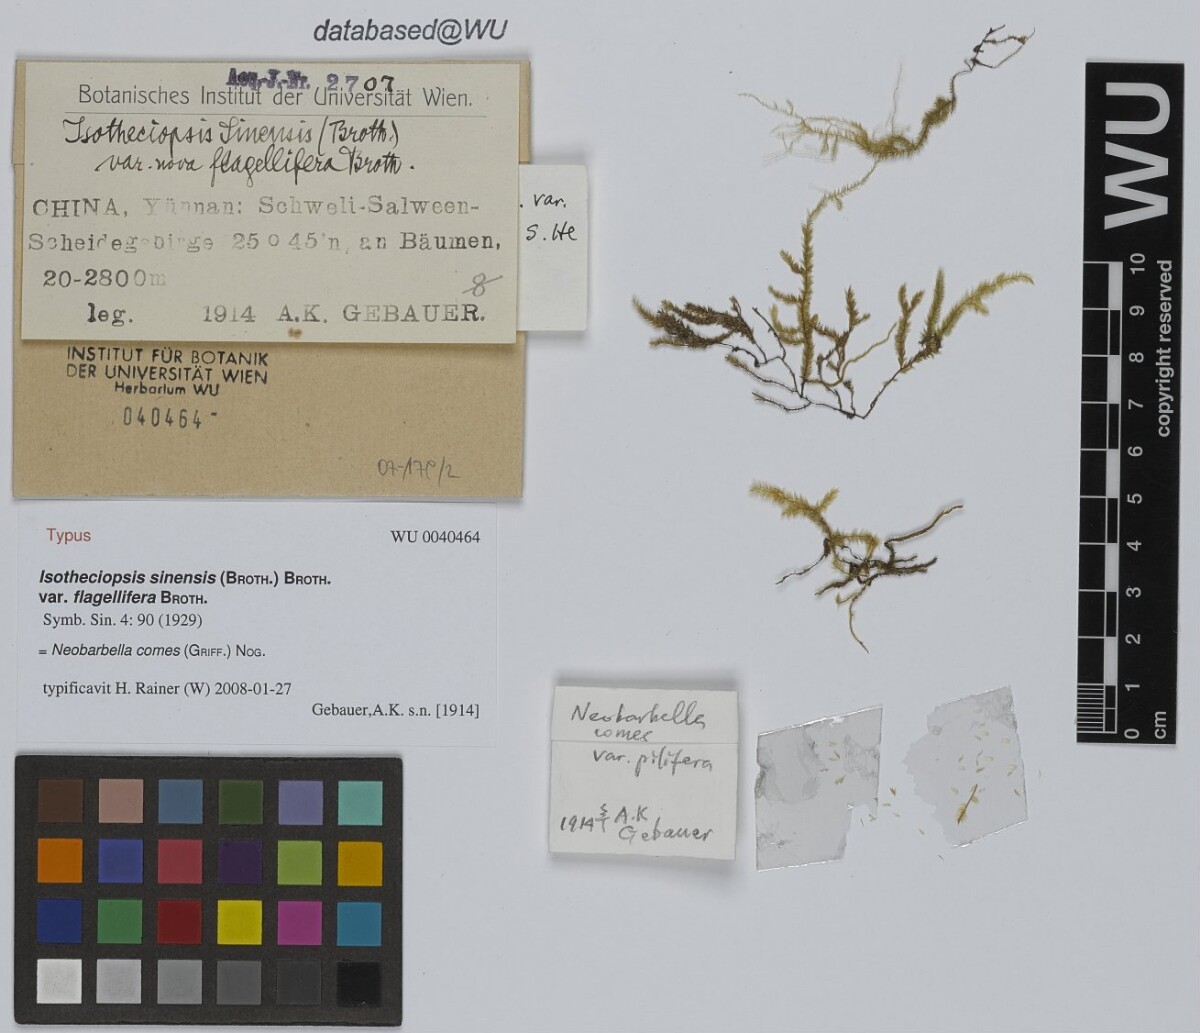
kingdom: Plantae
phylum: Bryophyta
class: Bryopsida
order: Hypnales
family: Lembophyllaceae
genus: Neobarbella
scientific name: Neobarbella comes
